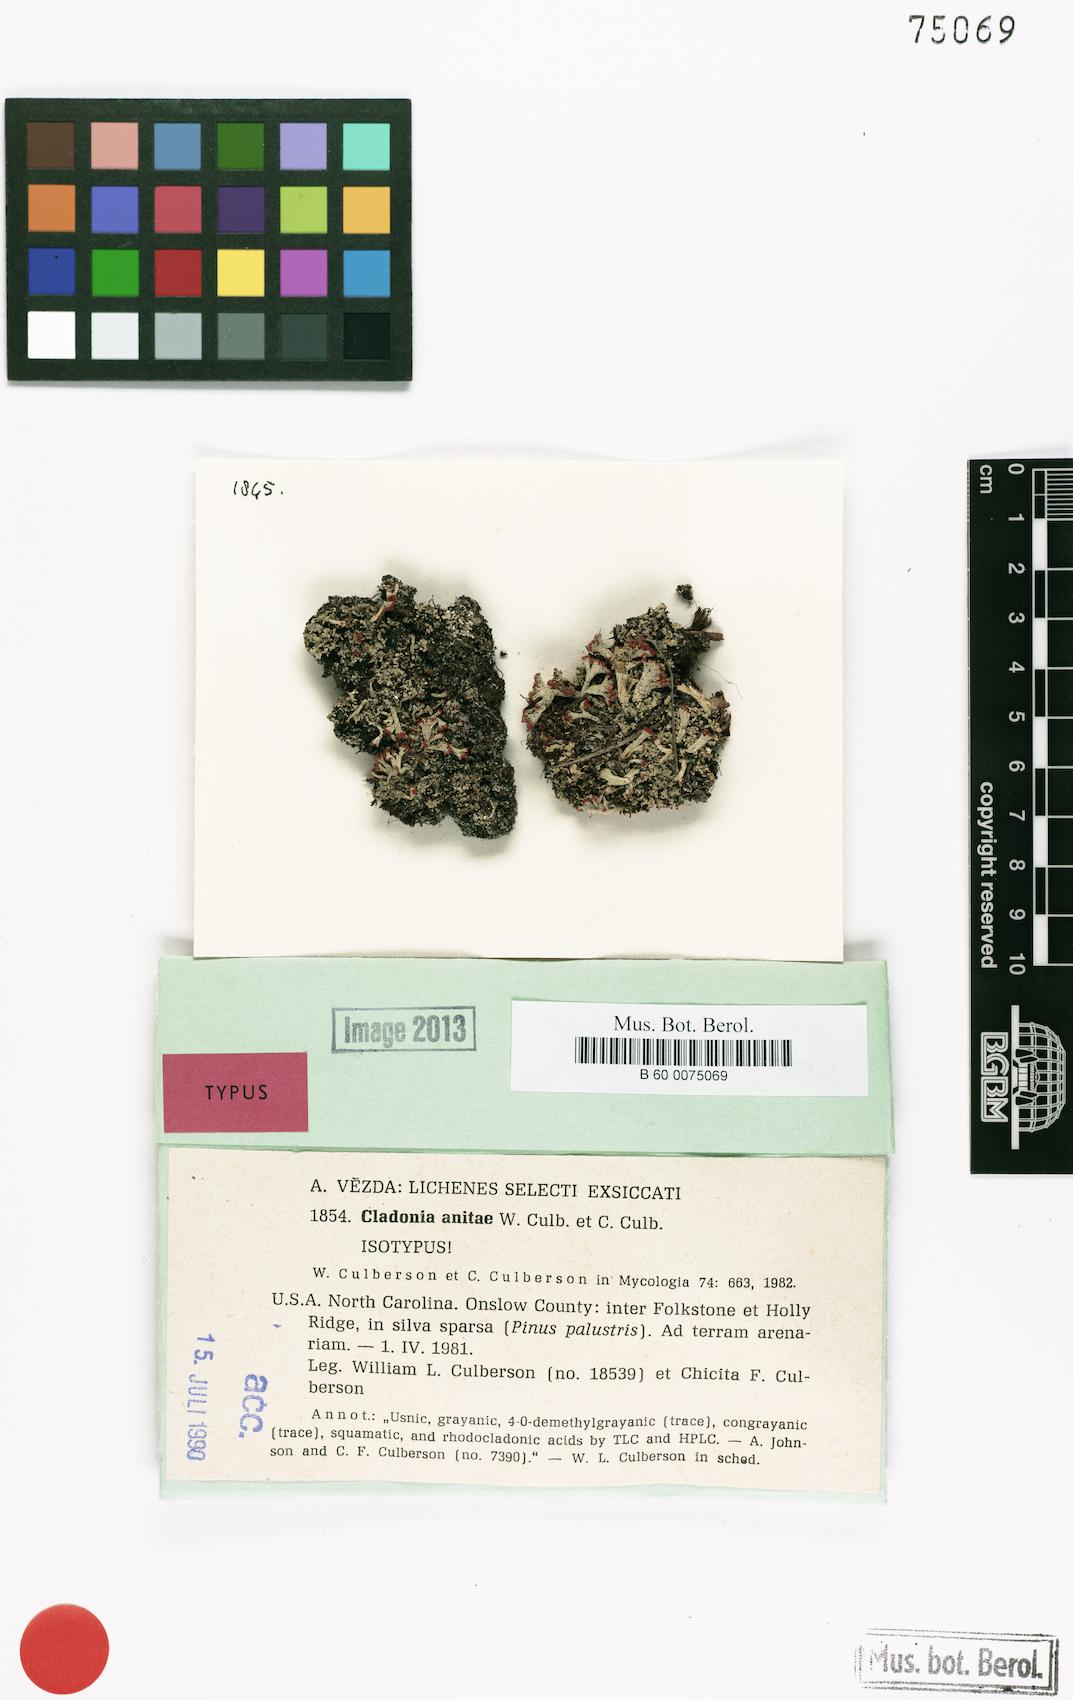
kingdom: Fungi
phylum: Ascomycota
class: Lecanoromycetes
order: Lecanorales
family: Cladoniaceae
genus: Cladonia
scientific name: Cladonia anitae
